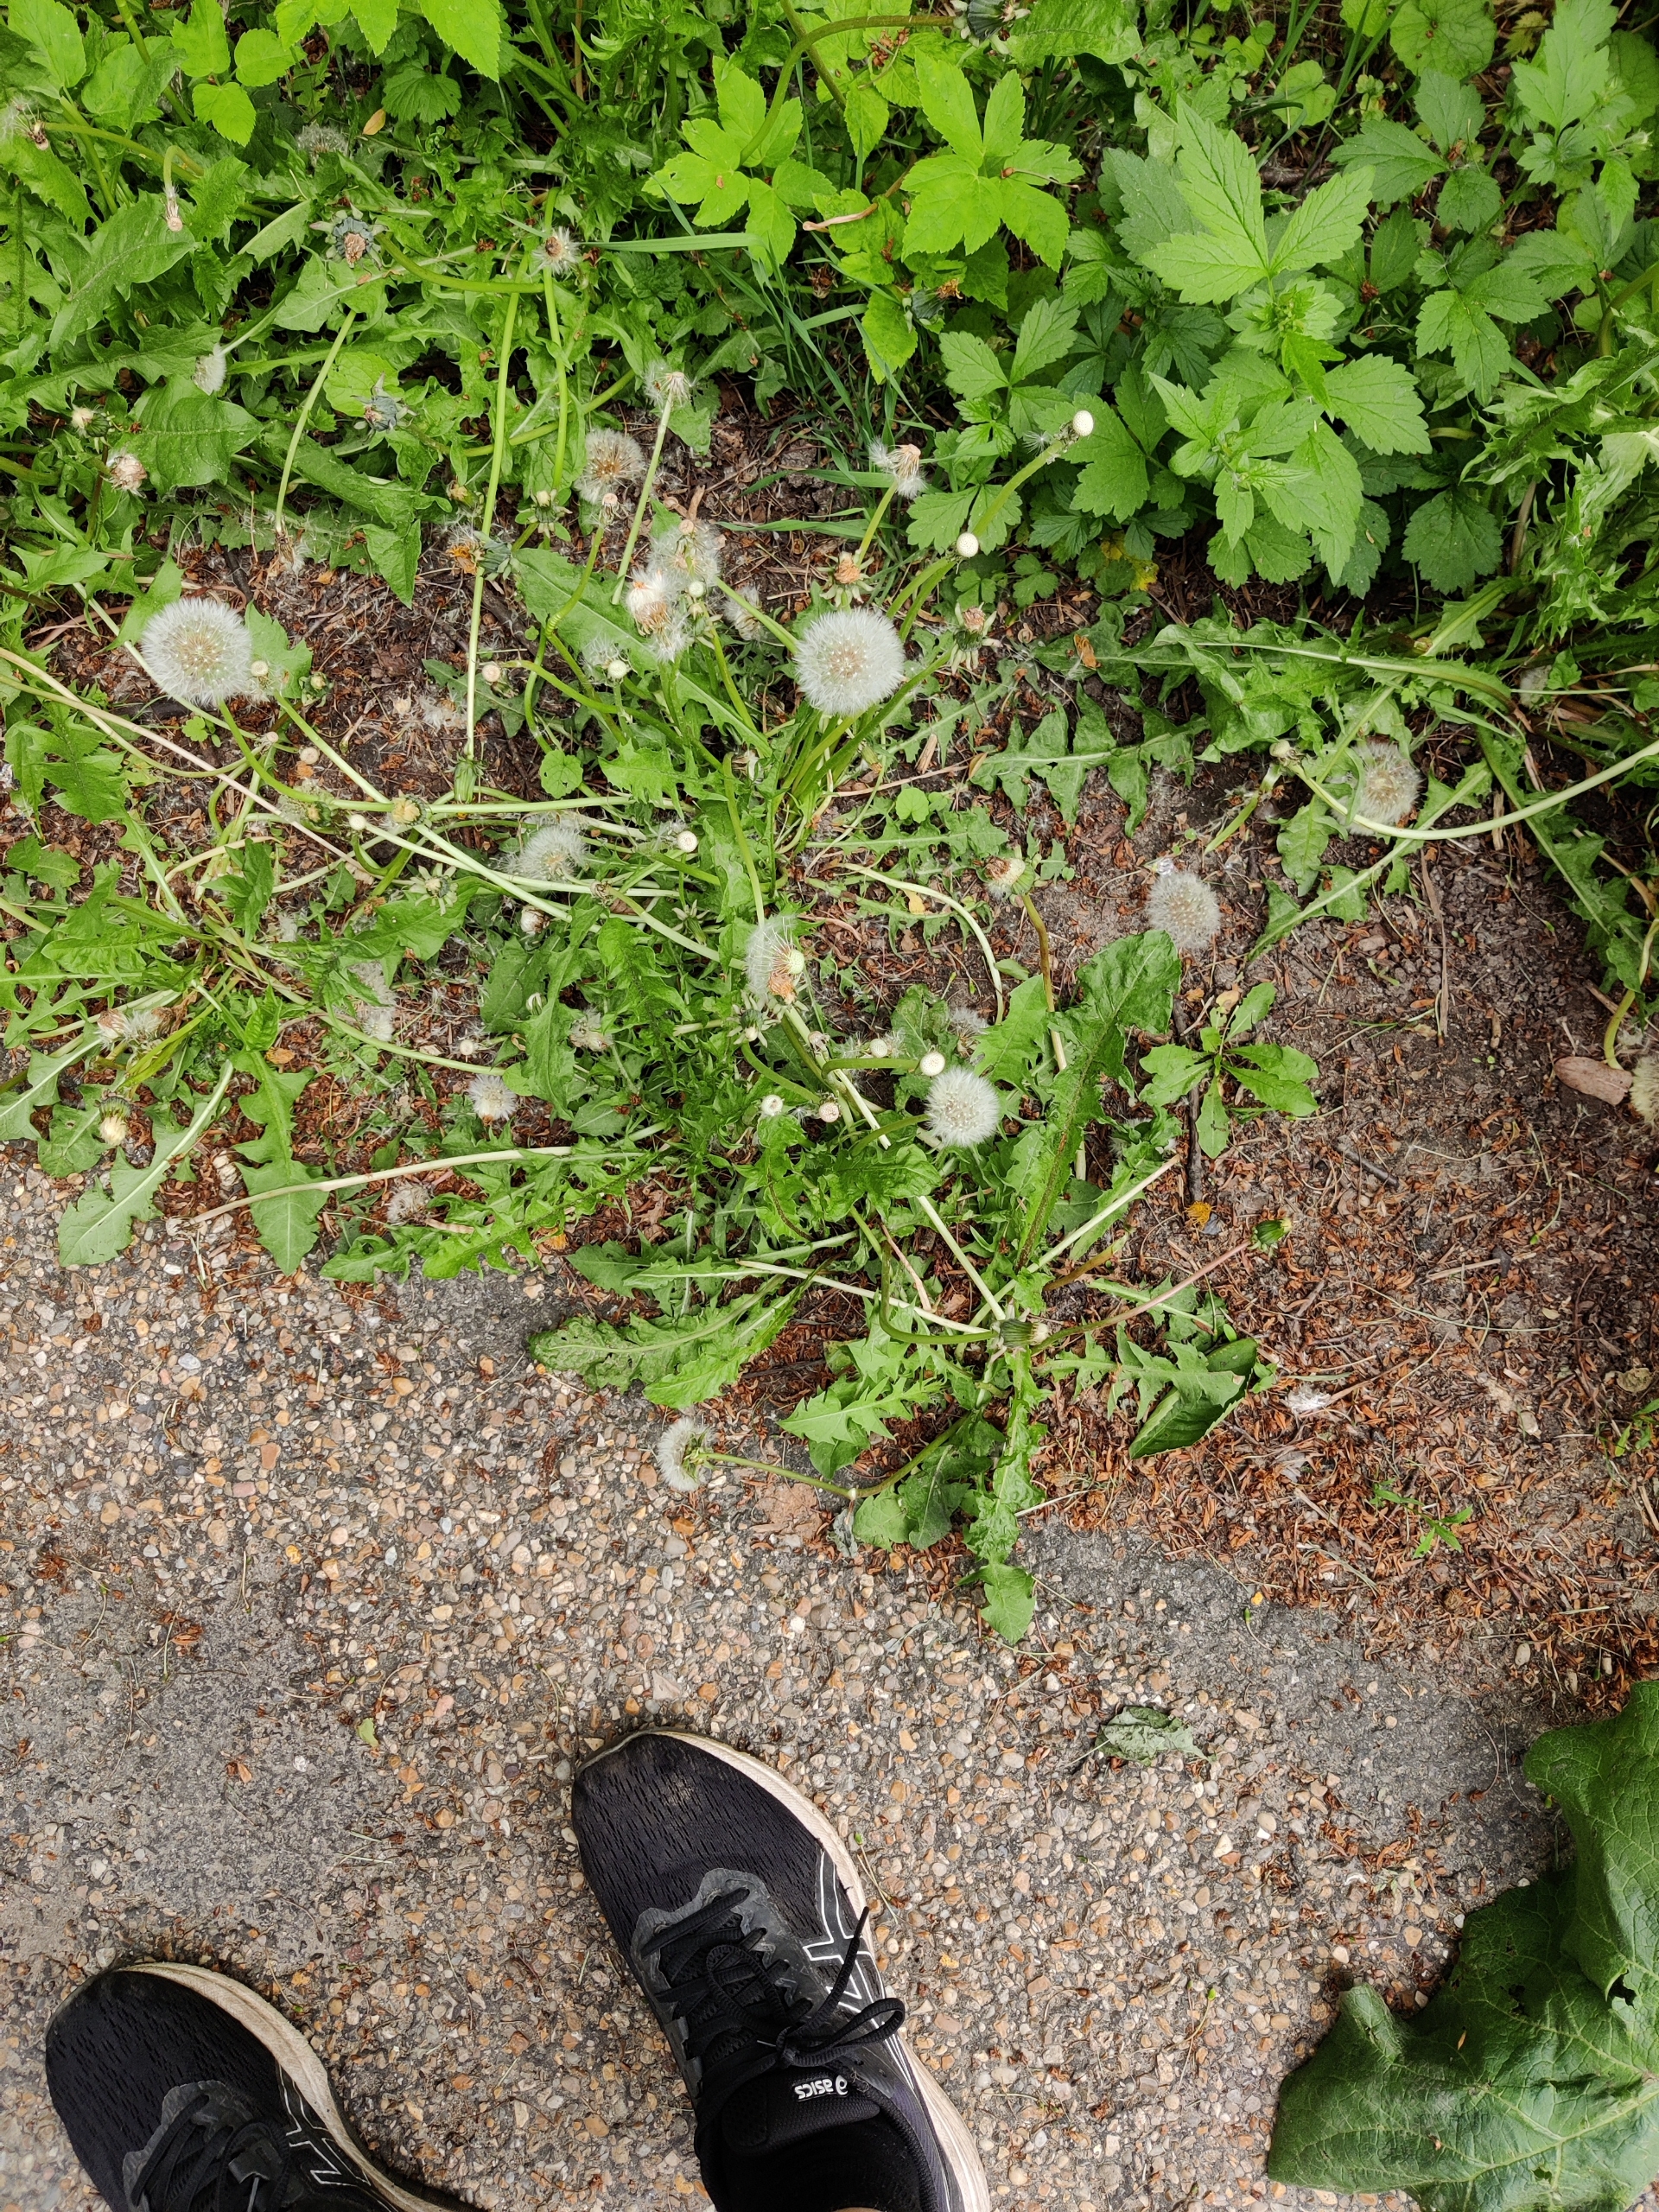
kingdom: Plantae
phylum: Tracheophyta
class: Magnoliopsida
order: Asterales
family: Asteraceae
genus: Taraxacum
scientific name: Taraxacum
